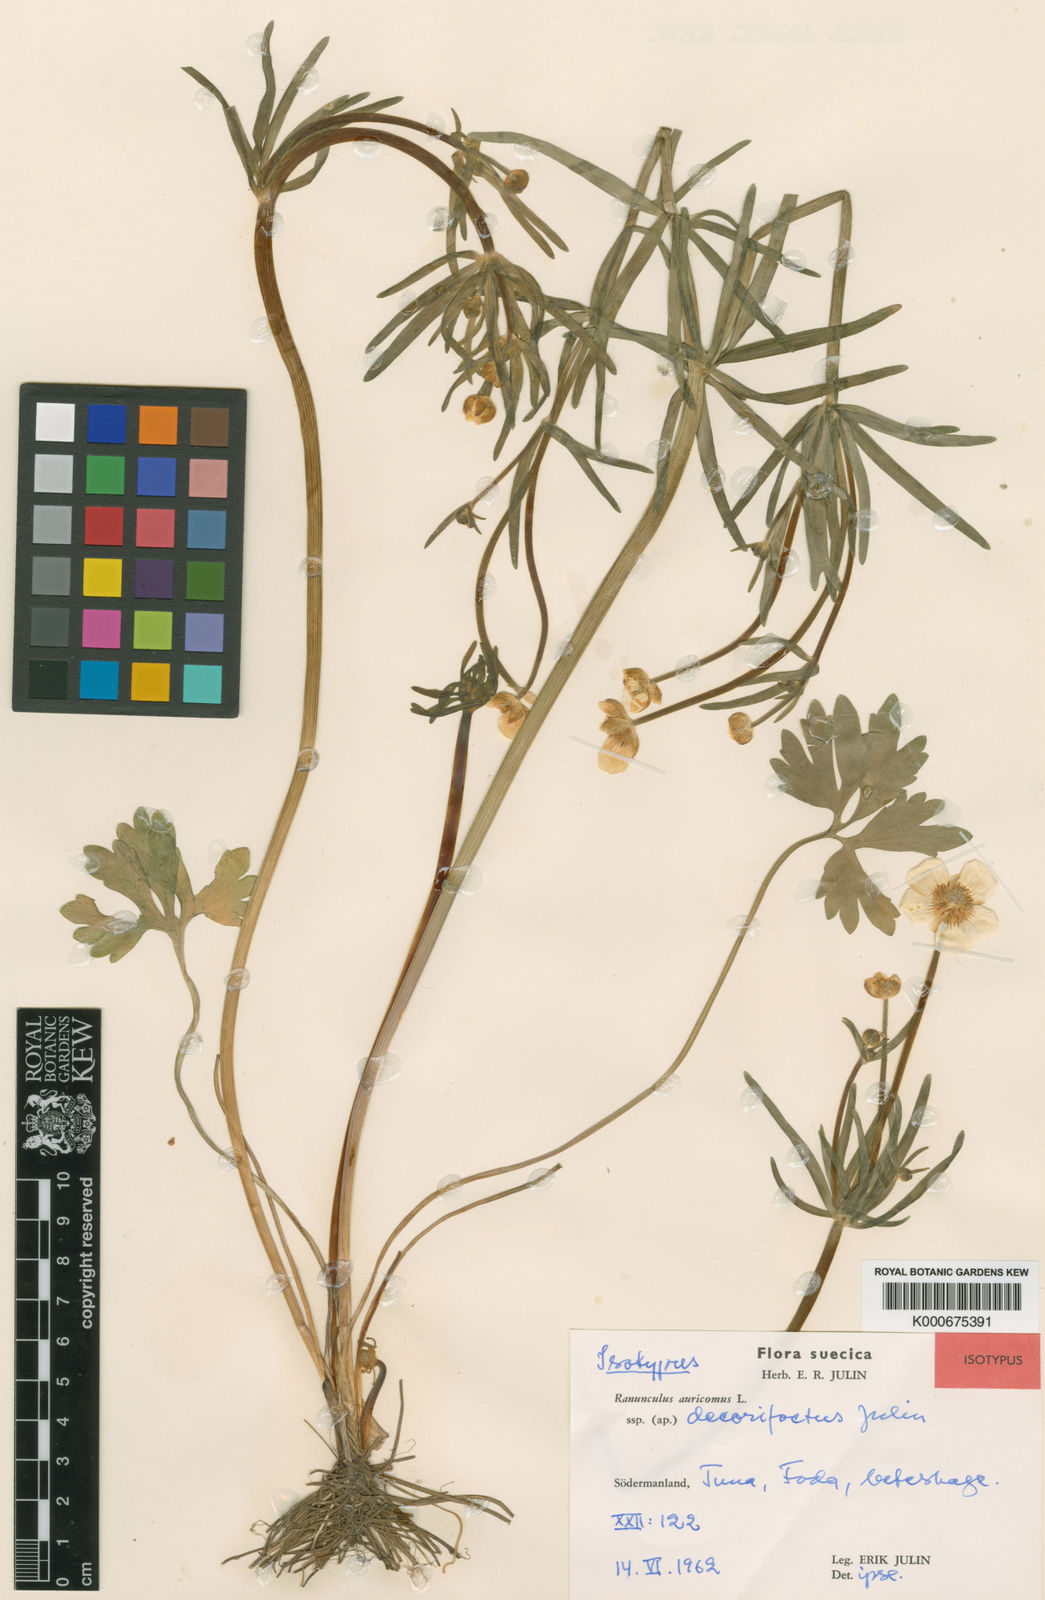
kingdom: Plantae
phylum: Tracheophyta
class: Magnoliopsida
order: Ranunculales
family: Ranunculaceae
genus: Ranunculus
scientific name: Ranunculus auricomus
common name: Goldilocks buttercup
